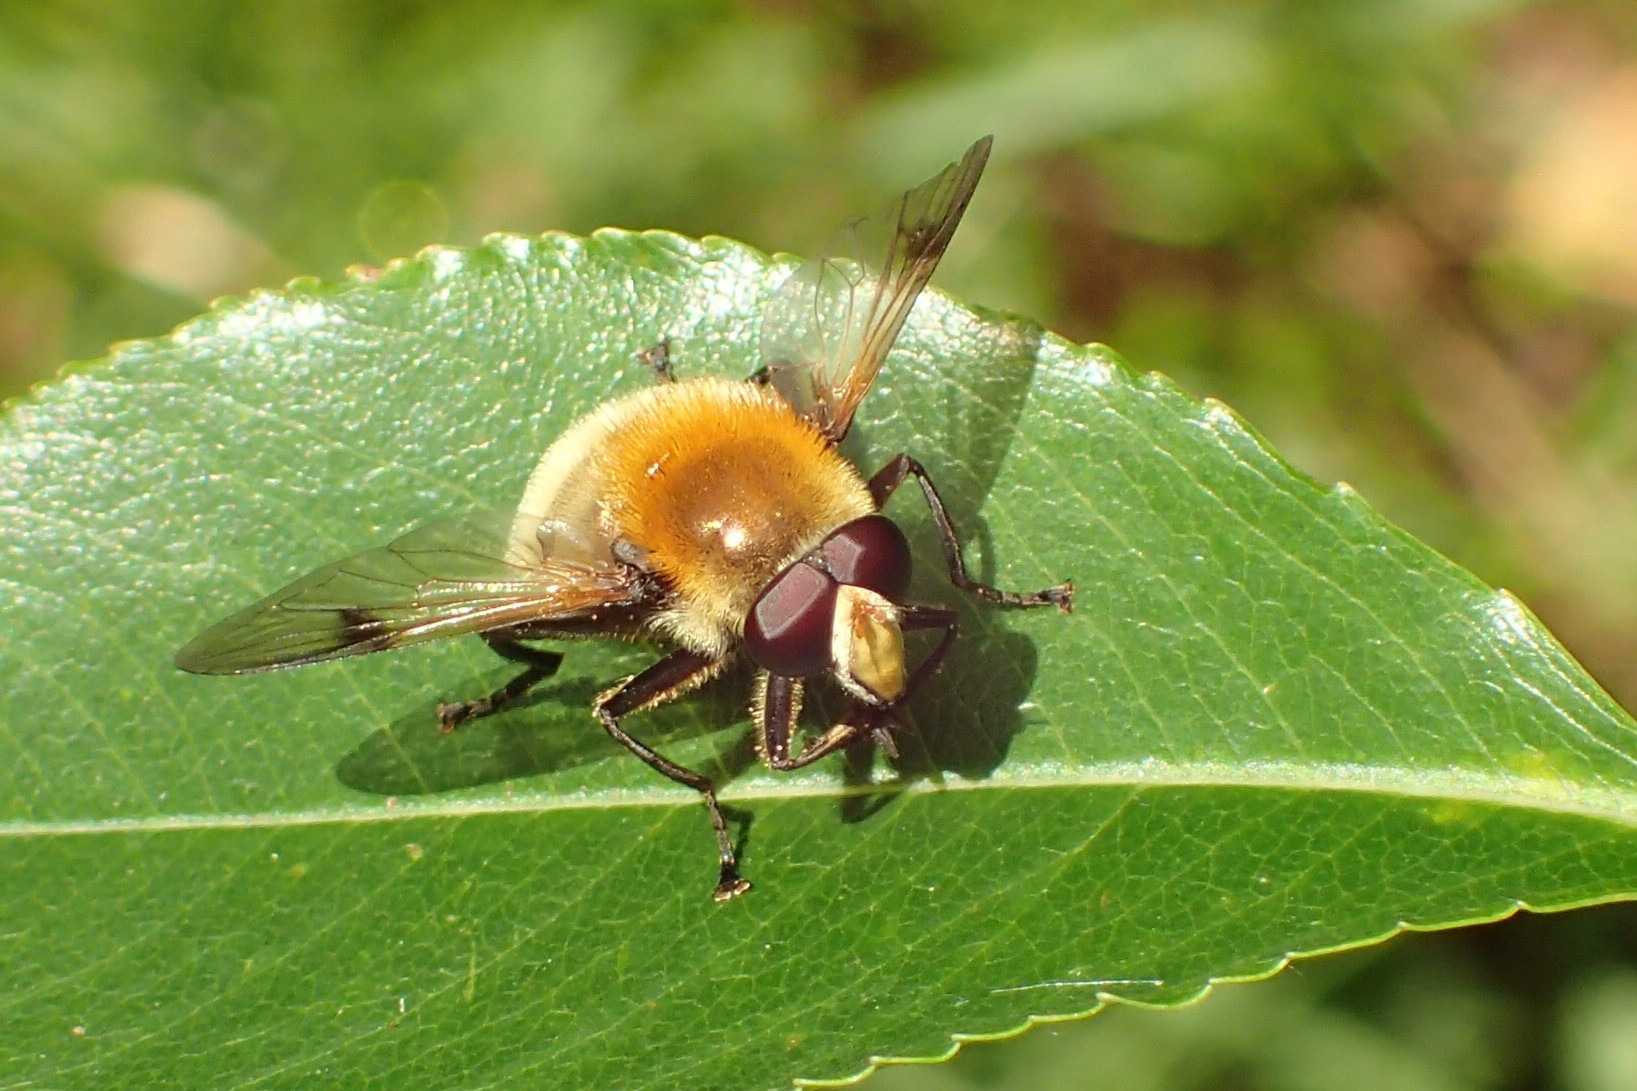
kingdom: Animalia
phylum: Arthropoda
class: Insecta
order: Diptera
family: Syrphidae
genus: Sericomyia
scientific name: Sericomyia superbiens
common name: Brun bjørnesvirreflue
